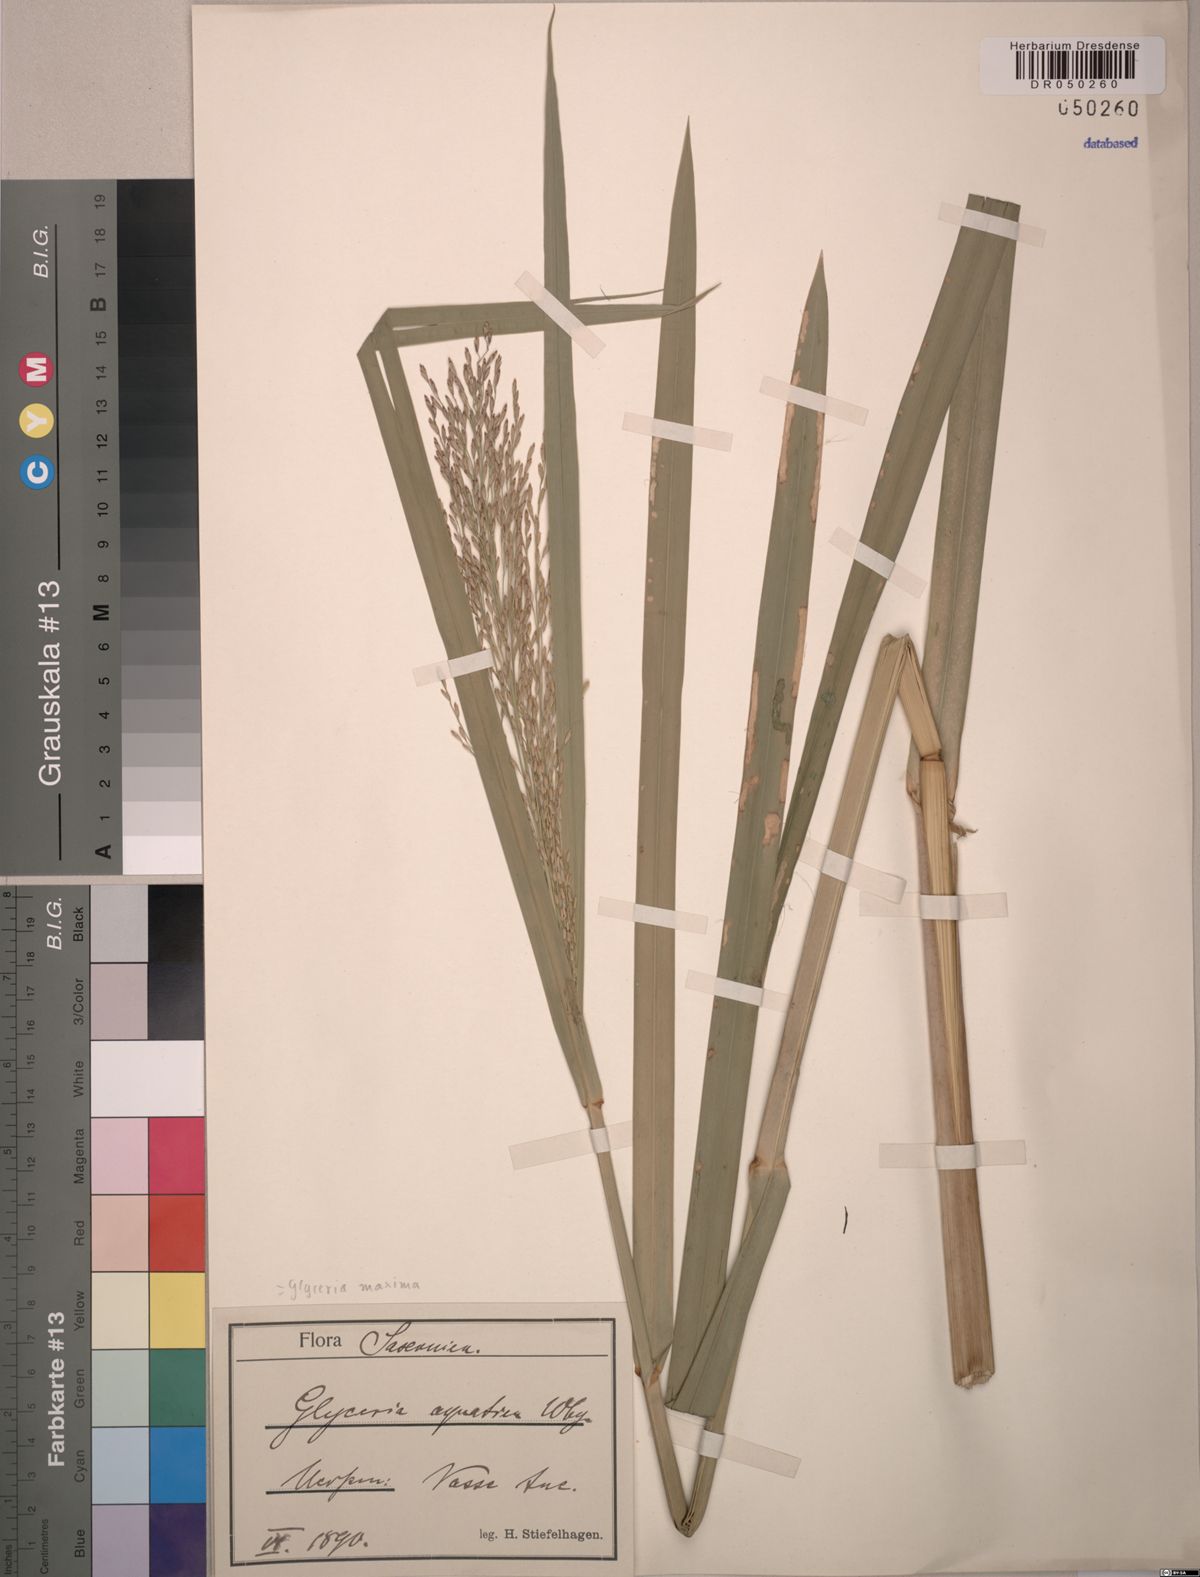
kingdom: Plantae
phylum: Tracheophyta
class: Liliopsida
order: Poales
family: Poaceae
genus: Glyceria
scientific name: Glyceria maxima
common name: Reed mannagrass
